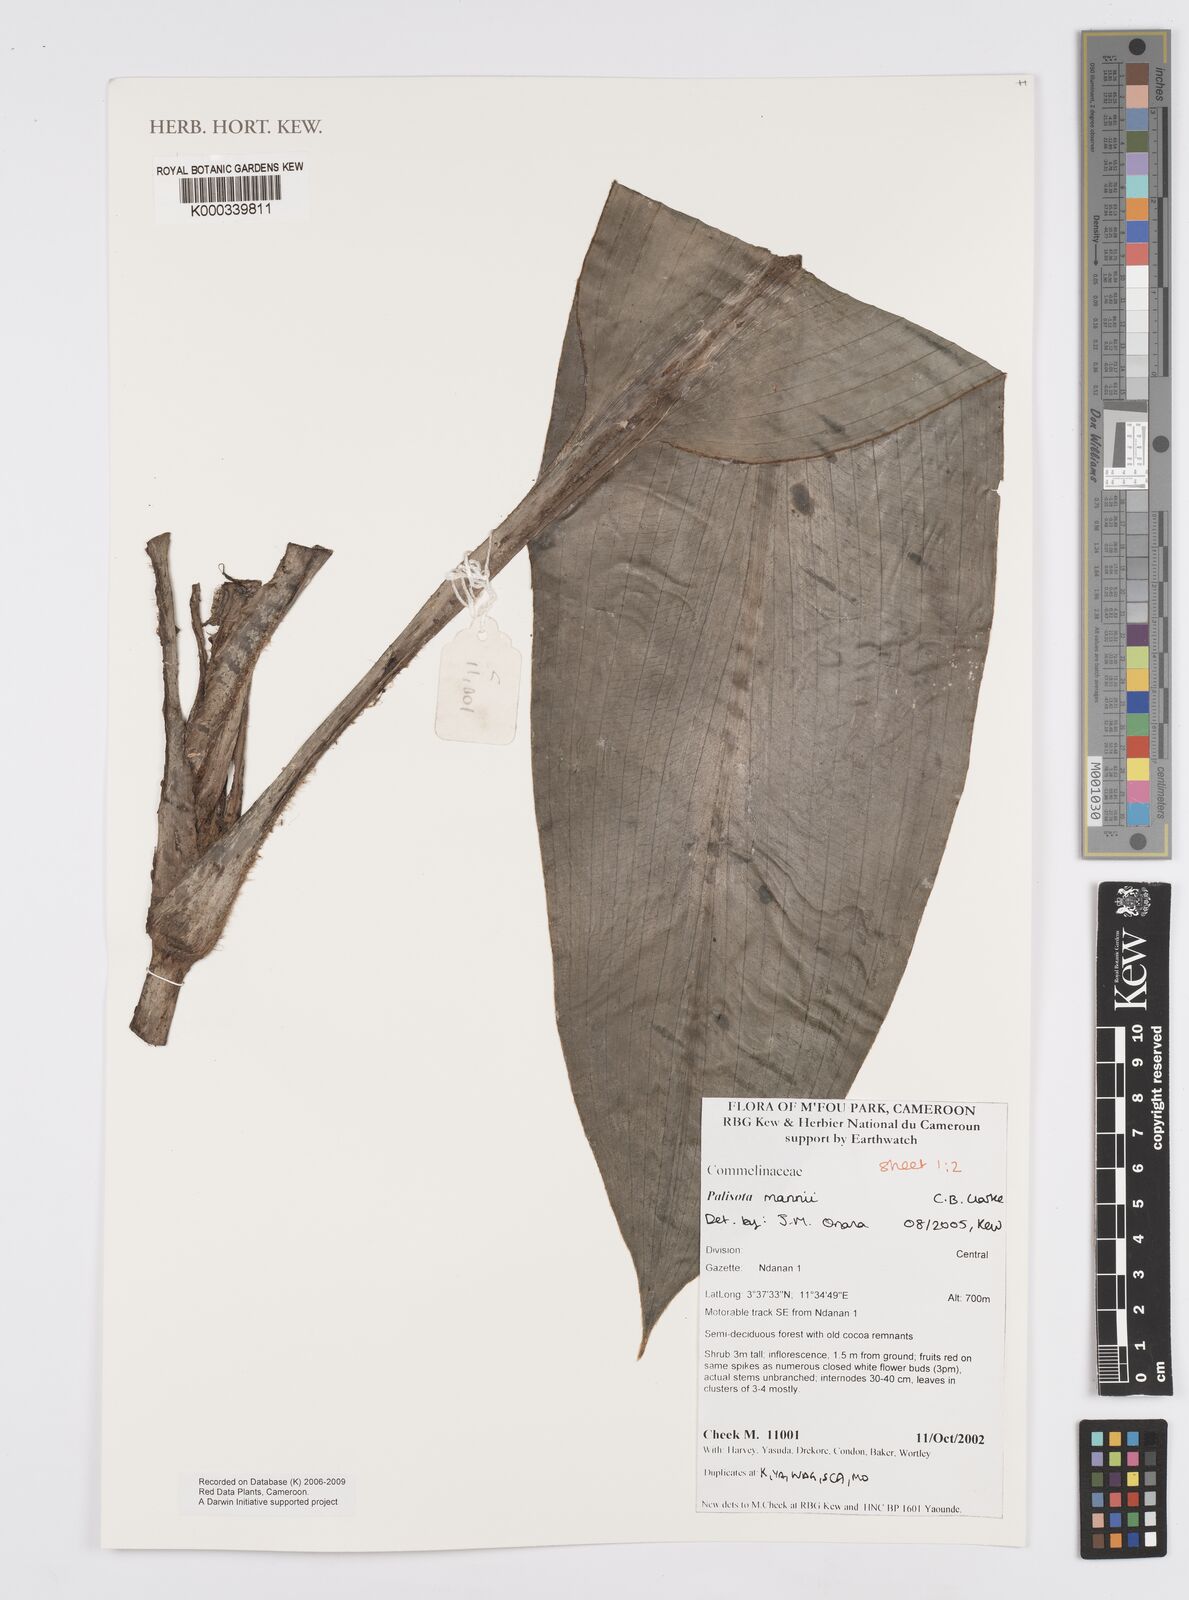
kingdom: Plantae
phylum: Tracheophyta
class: Liliopsida
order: Commelinales
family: Commelinaceae
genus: Palisota
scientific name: Palisota mannii
